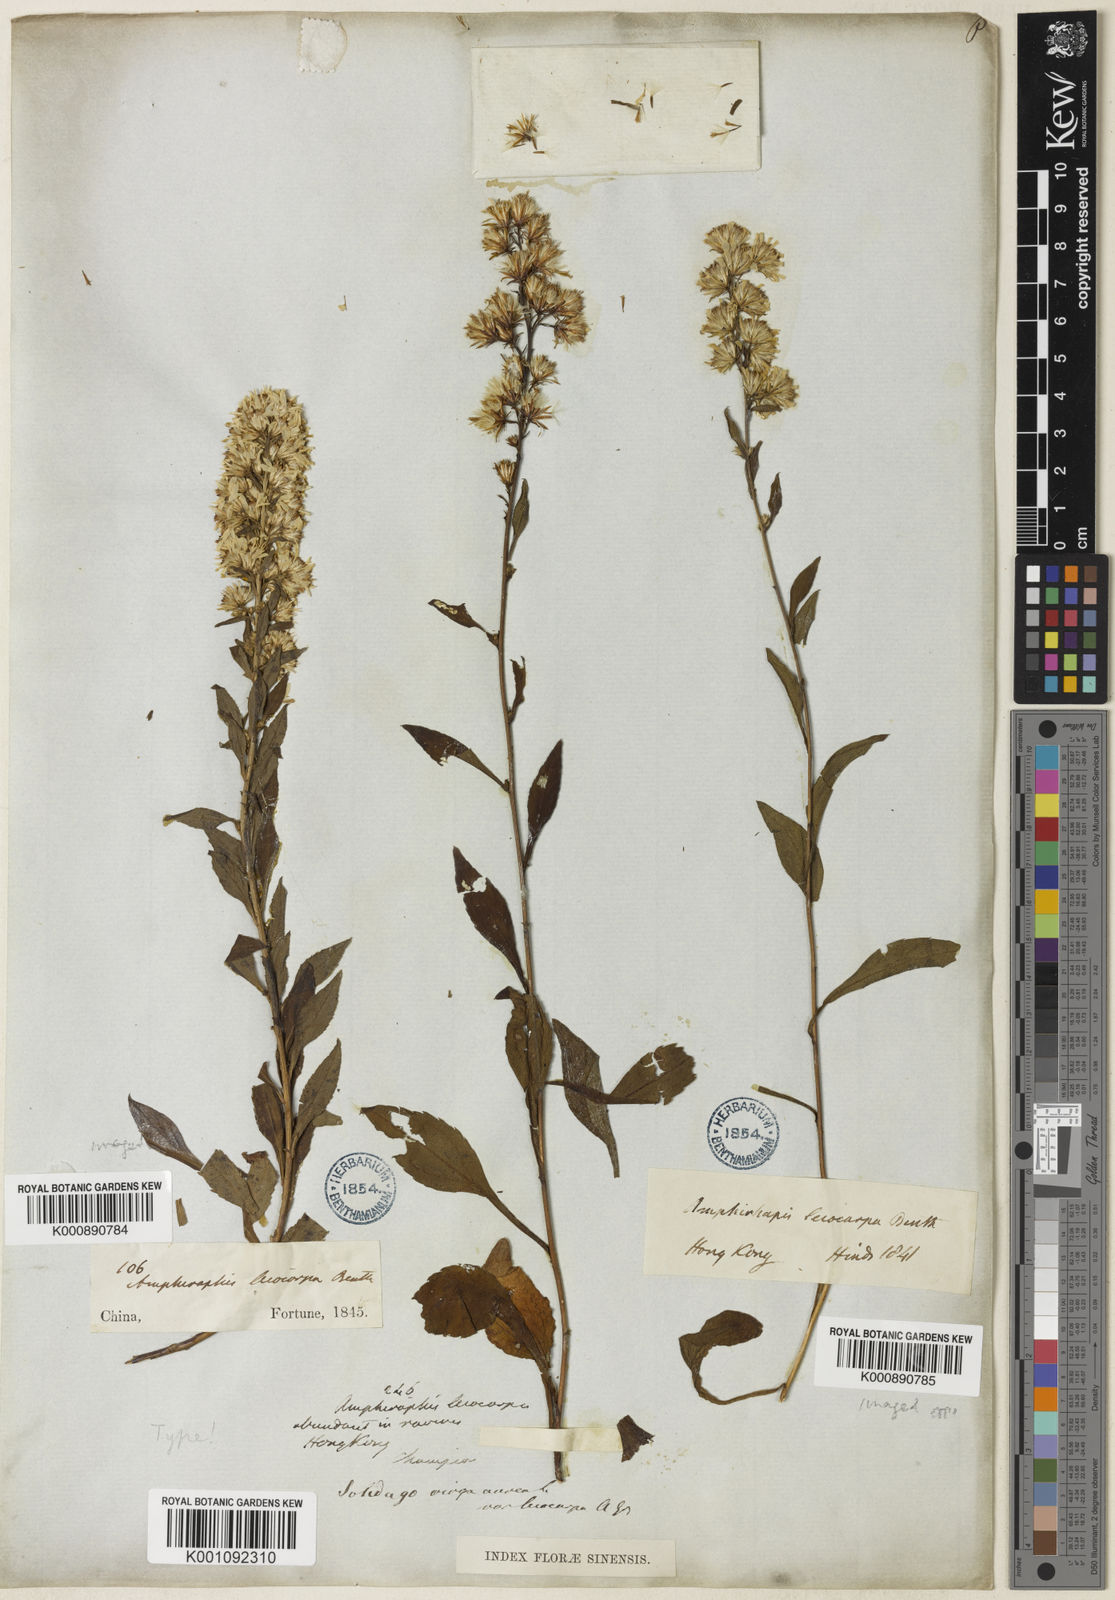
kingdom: Plantae
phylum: Tracheophyta
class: Magnoliopsida
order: Asterales
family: Asteraceae
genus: Solidago
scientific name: Solidago decurrens
